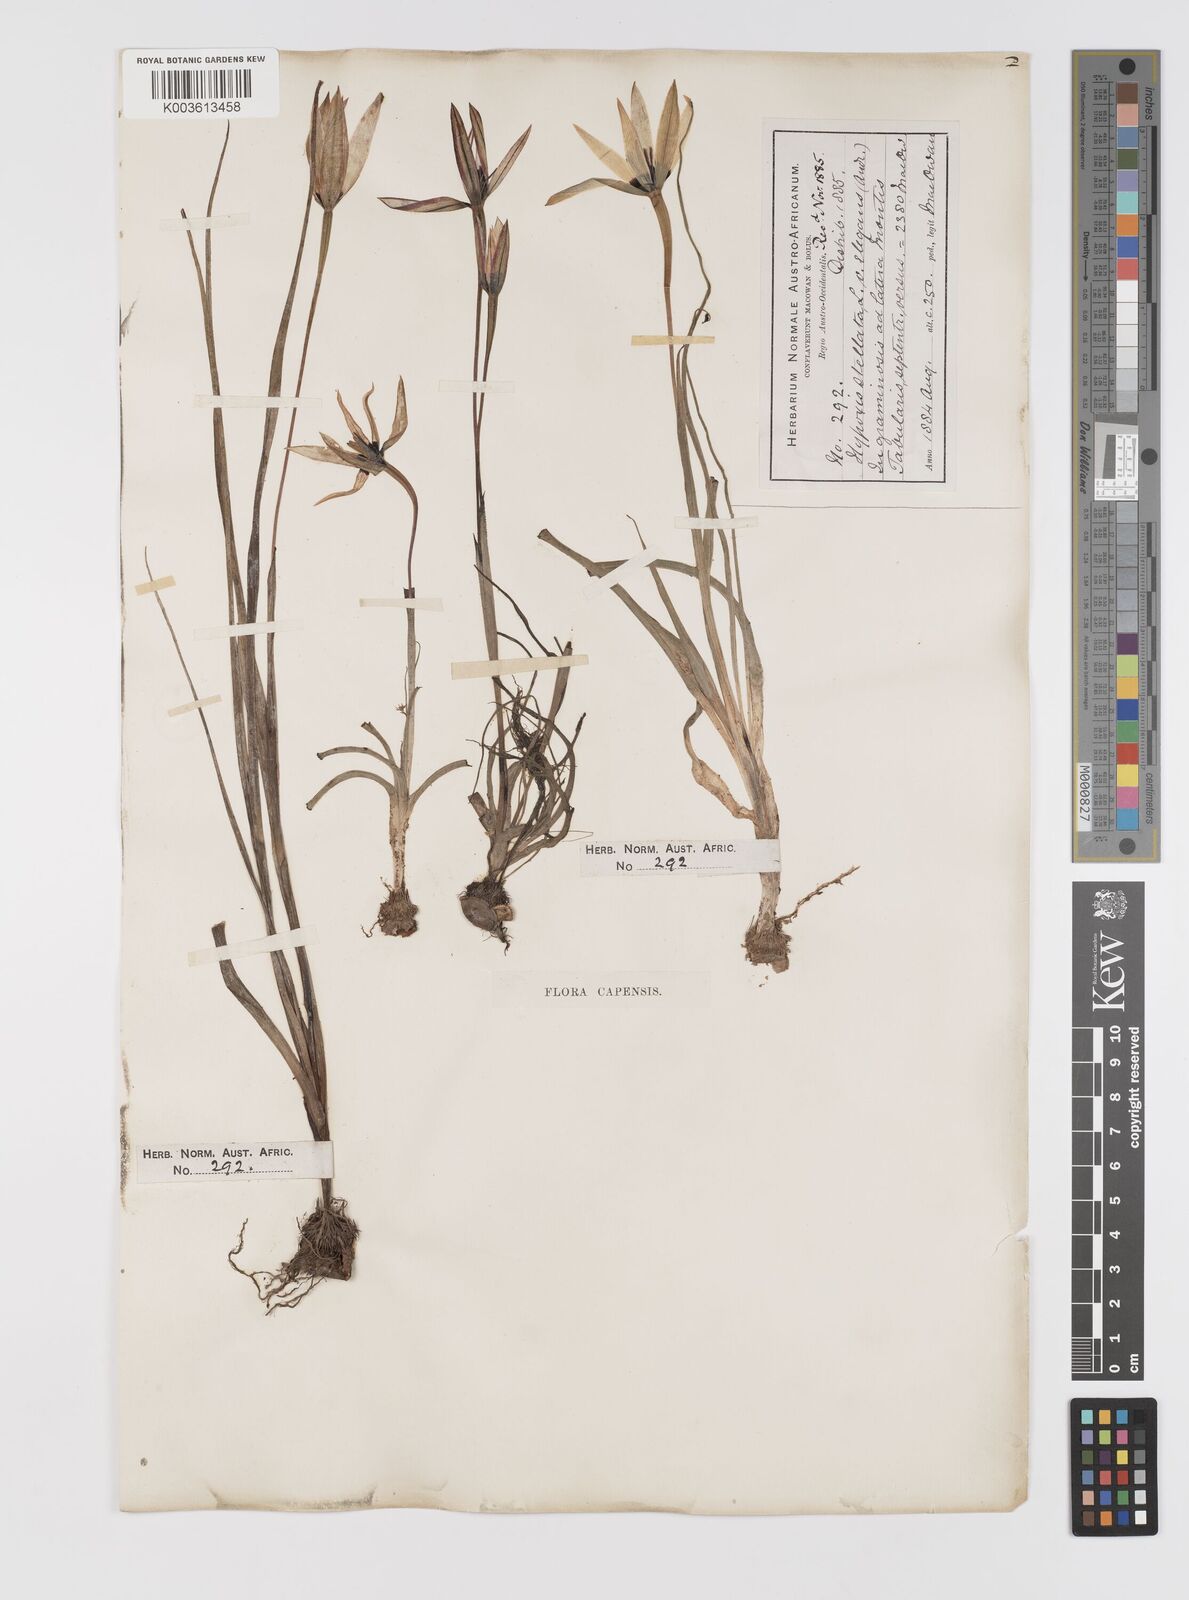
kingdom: Plantae
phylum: Tracheophyta
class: Liliopsida
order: Asparagales
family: Hypoxidaceae
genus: Pauridia
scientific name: Pauridia capensis
